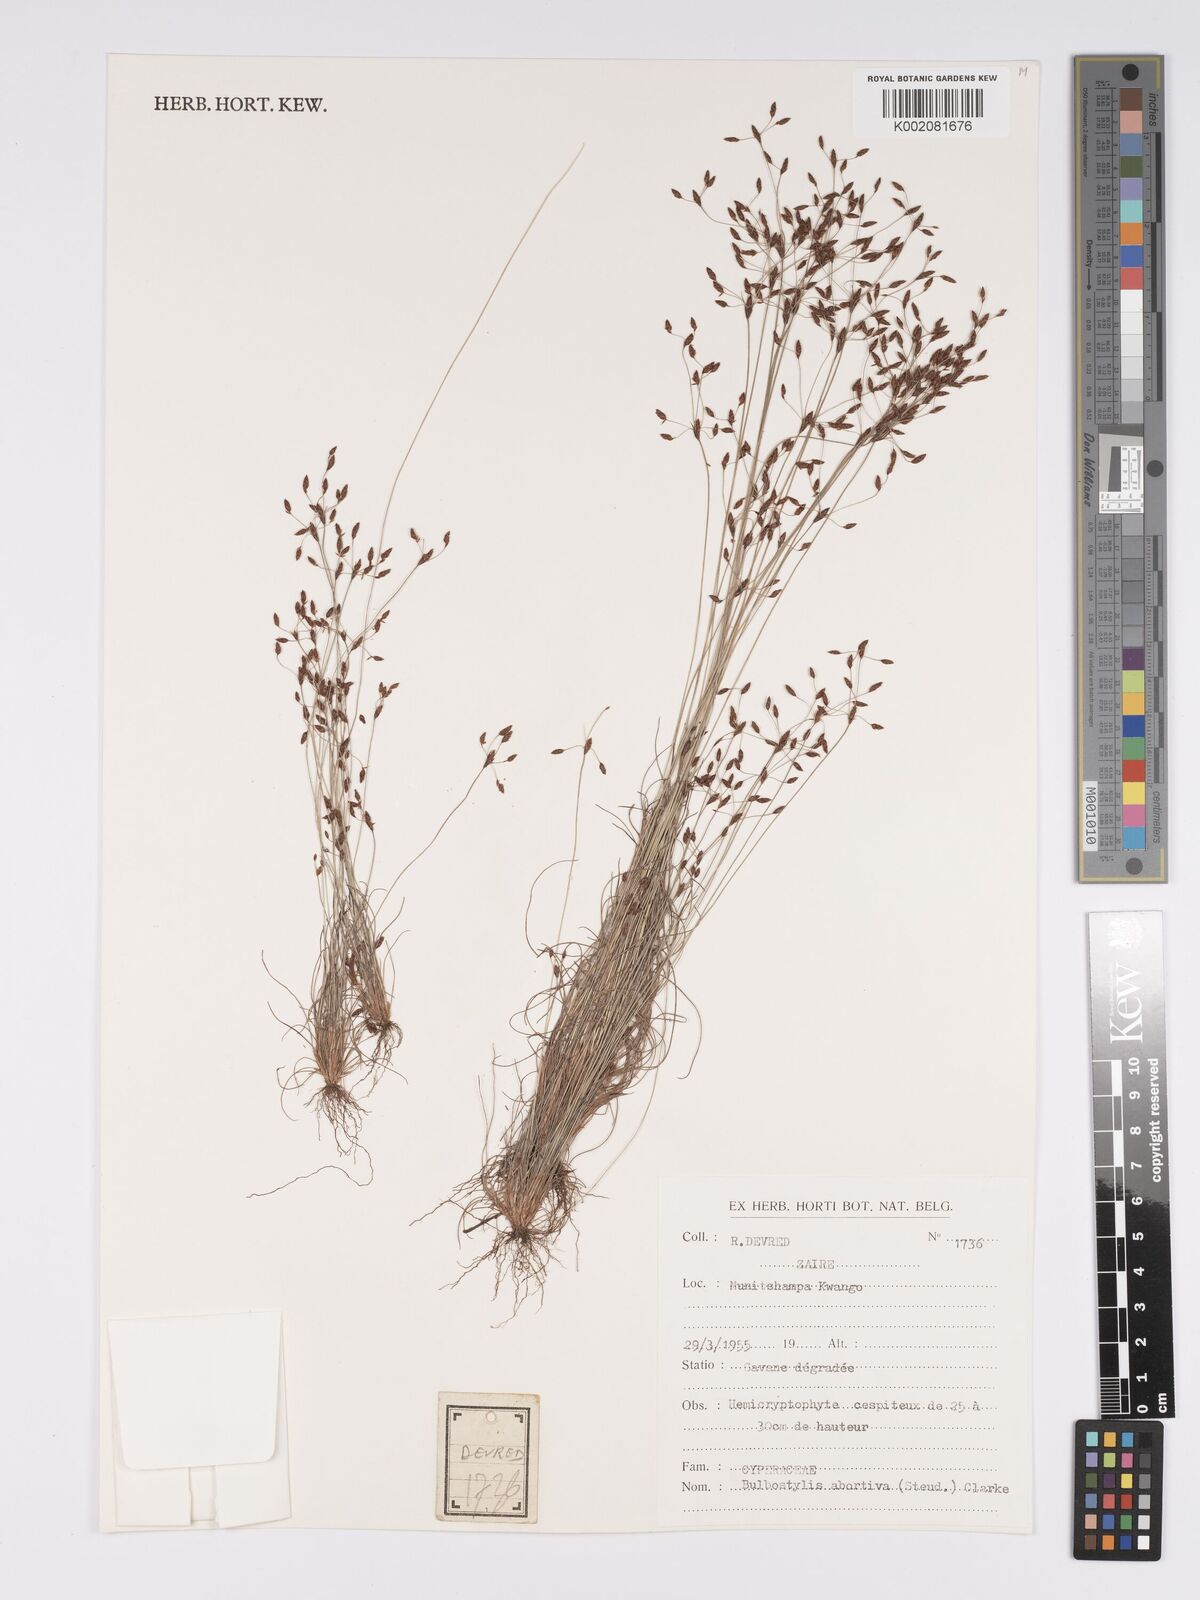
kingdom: Plantae
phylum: Tracheophyta
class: Liliopsida
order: Poales
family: Cyperaceae
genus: Bulbostylis
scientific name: Bulbostylis abortiva
